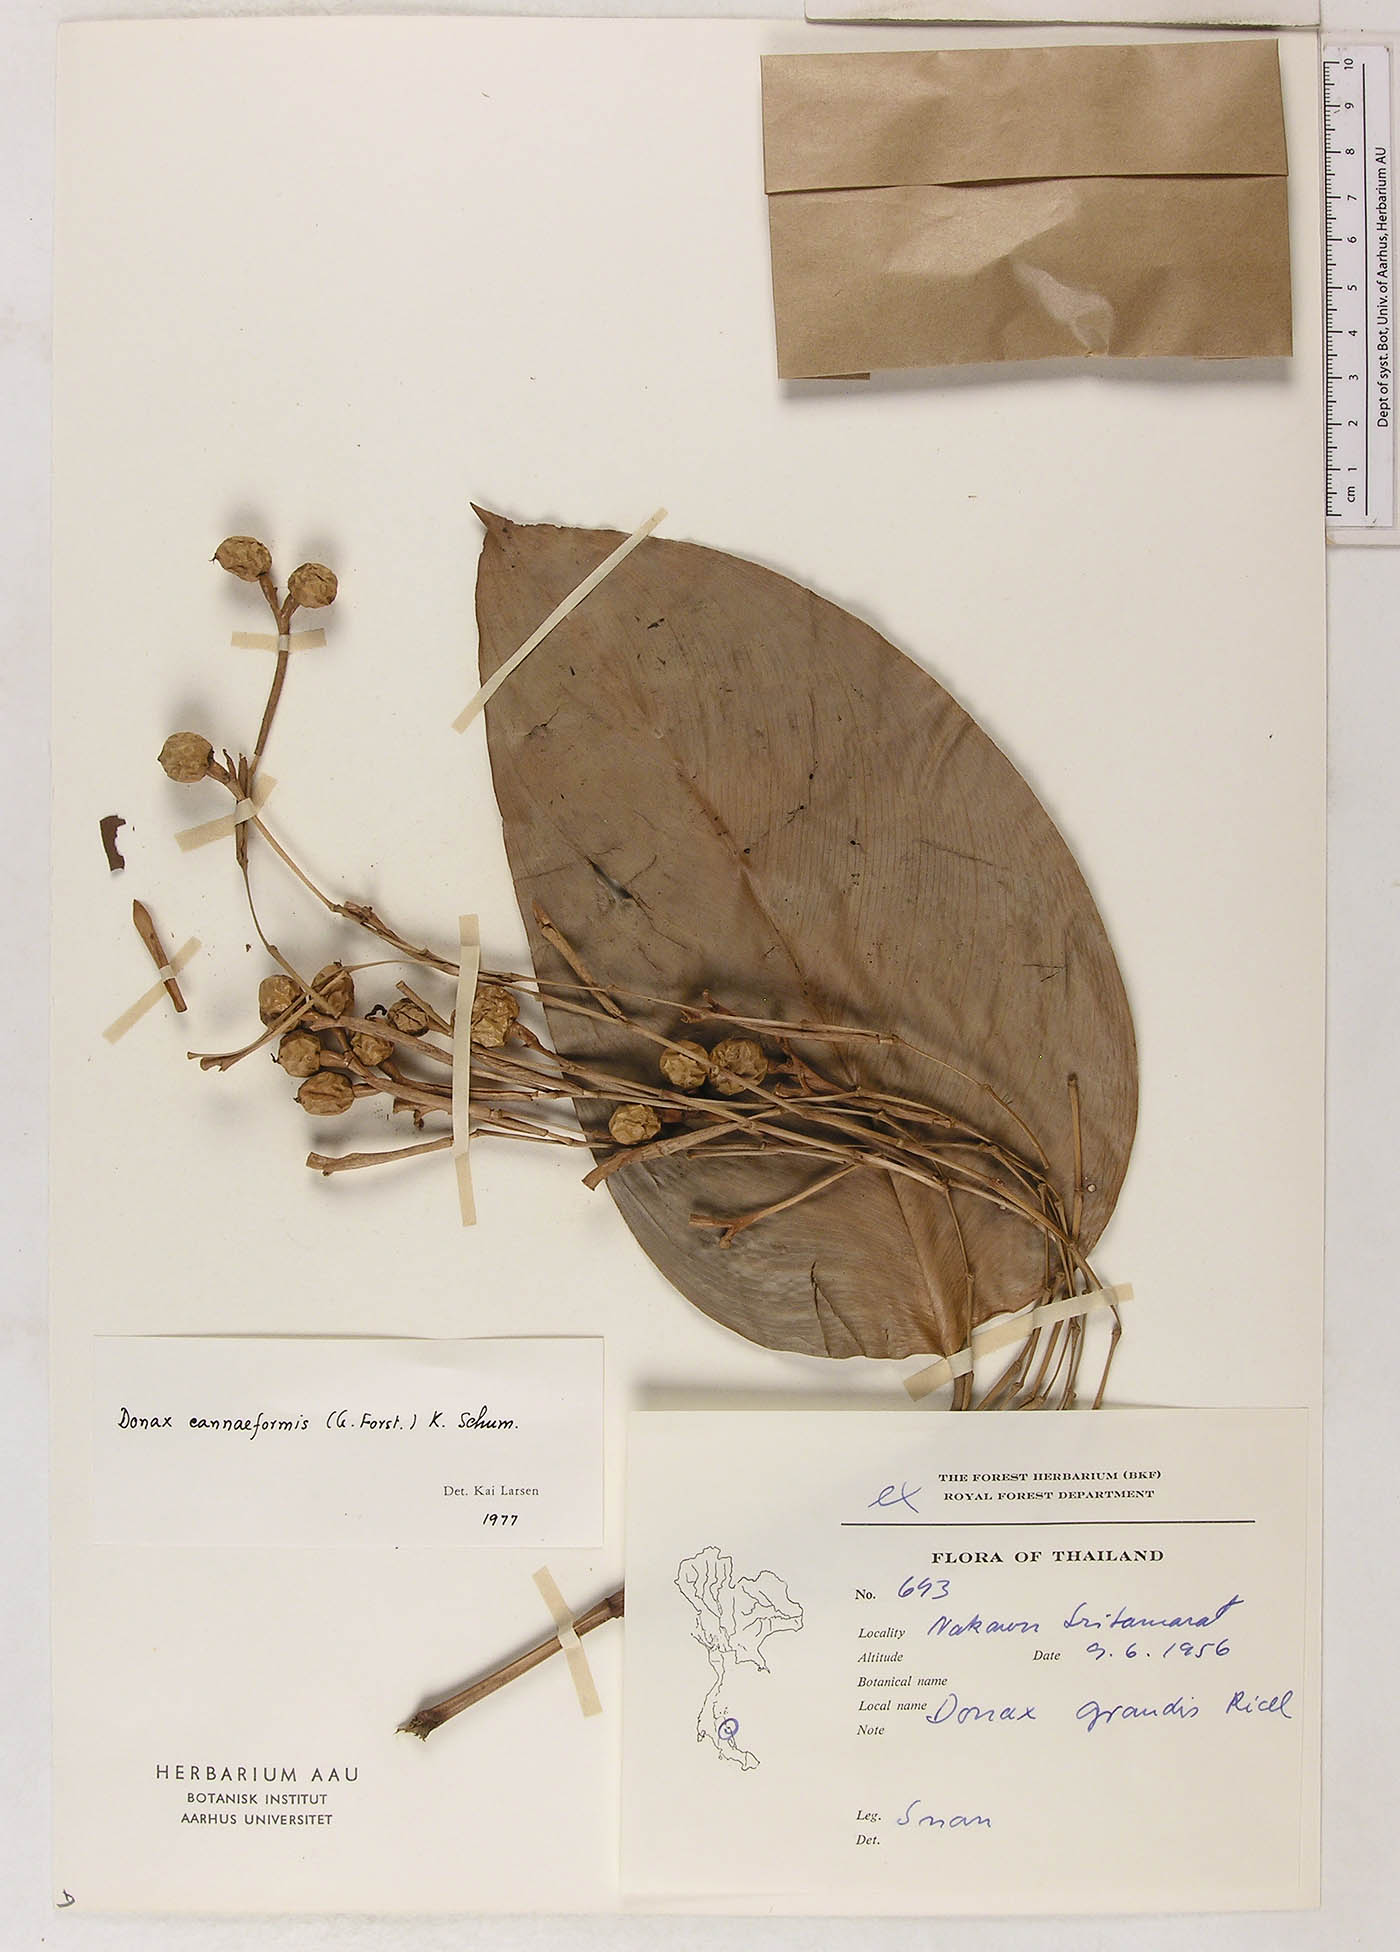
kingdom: Plantae
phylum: Tracheophyta
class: Liliopsida
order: Zingiberales
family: Marantaceae
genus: Donax
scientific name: Donax canniformis
